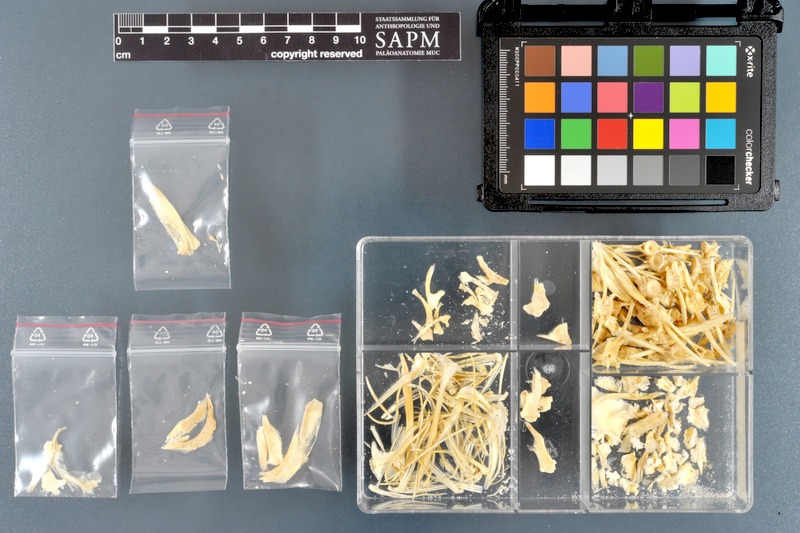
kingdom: Animalia
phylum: Chordata
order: Perciformes
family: Stromateidae
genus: Pampus
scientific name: Pampus argenteus
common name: Silver pomfret
